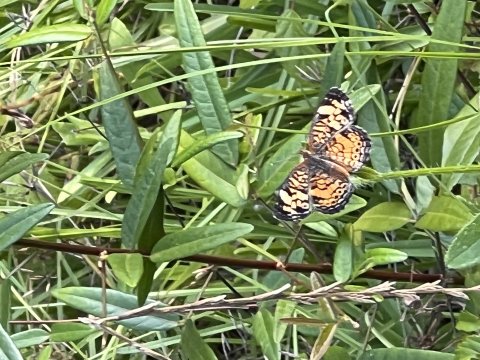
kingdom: Animalia
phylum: Arthropoda
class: Insecta
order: Lepidoptera
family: Nymphalidae
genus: Phyciodes
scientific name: Phyciodes phaon
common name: Phaon Crescent
